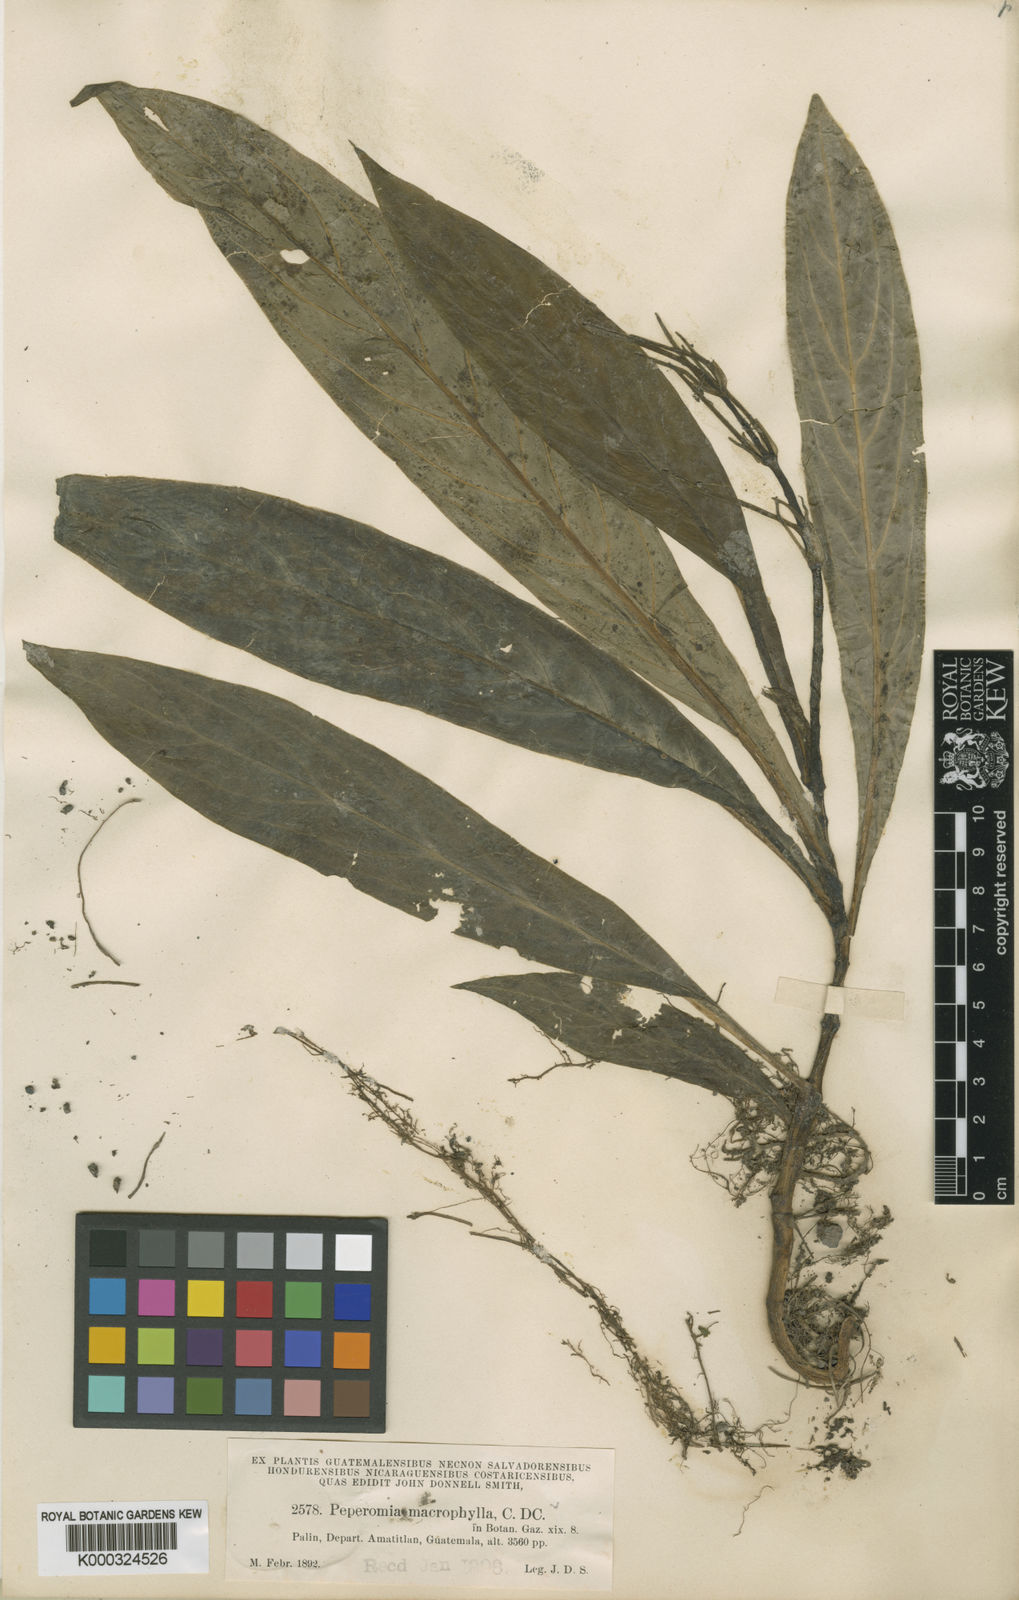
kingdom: Plantae
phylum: Tracheophyta
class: Magnoliopsida
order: Piperales
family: Piperaceae
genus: Peperomia
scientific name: Peperomia lancifolia
